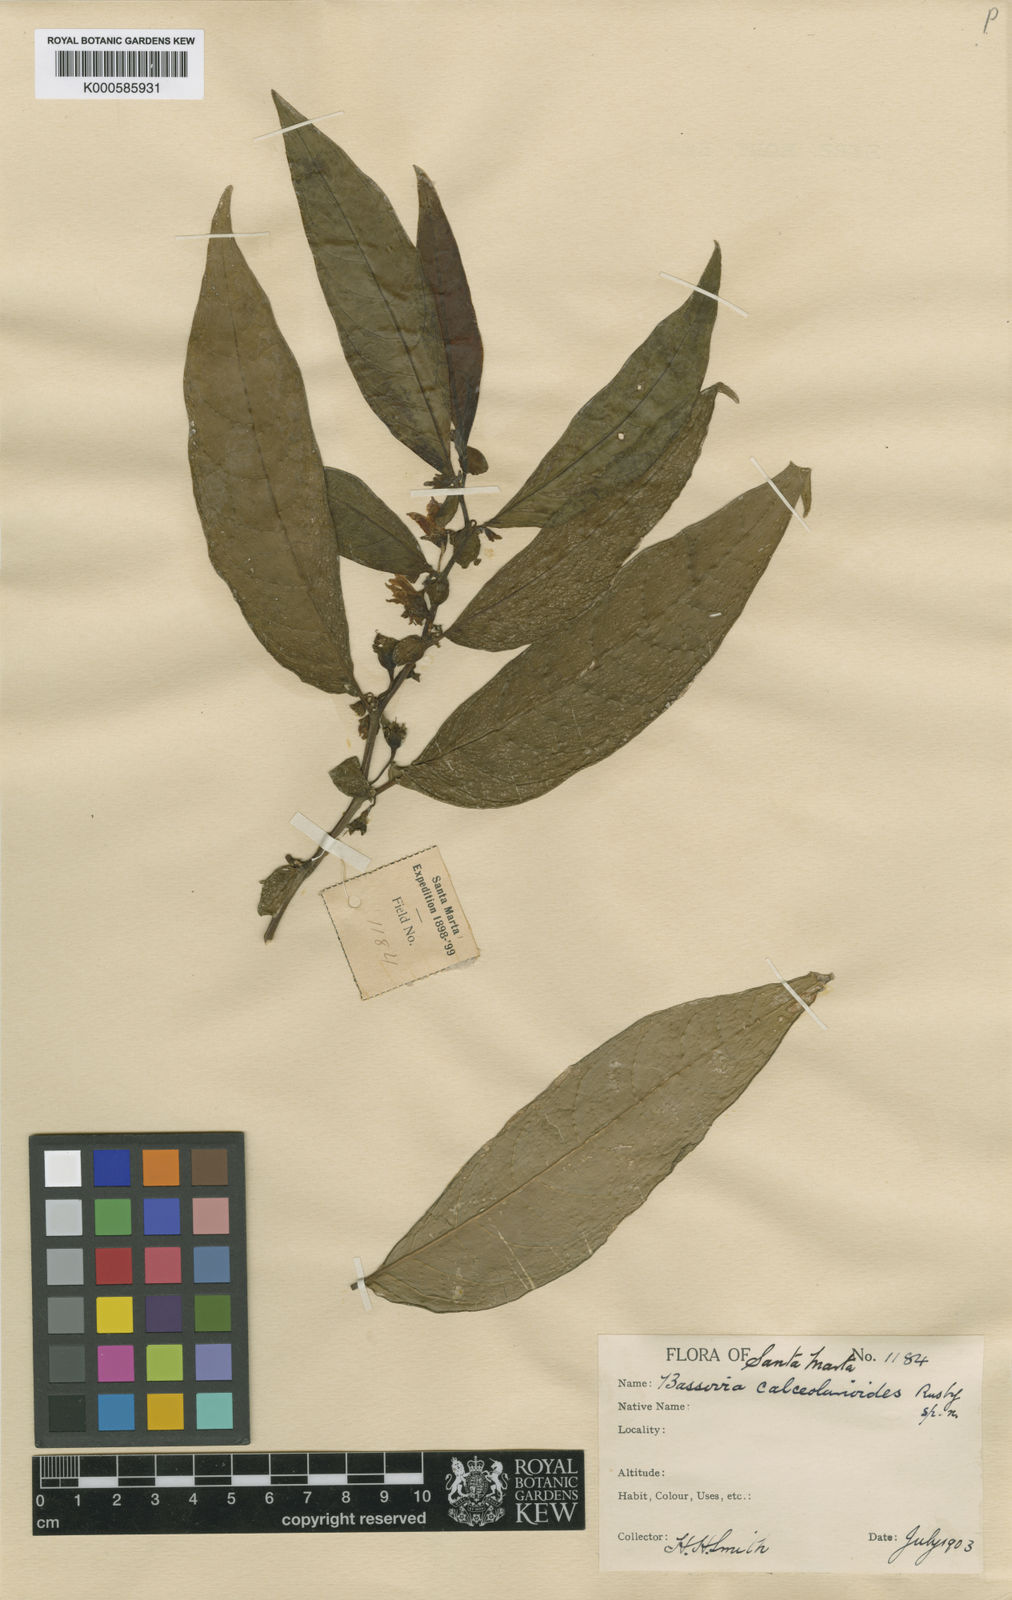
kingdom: Plantae
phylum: Tracheophyta
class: Magnoliopsida
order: Solanales
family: Solanaceae
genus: Iochroma
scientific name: Iochroma Acnistus spec
